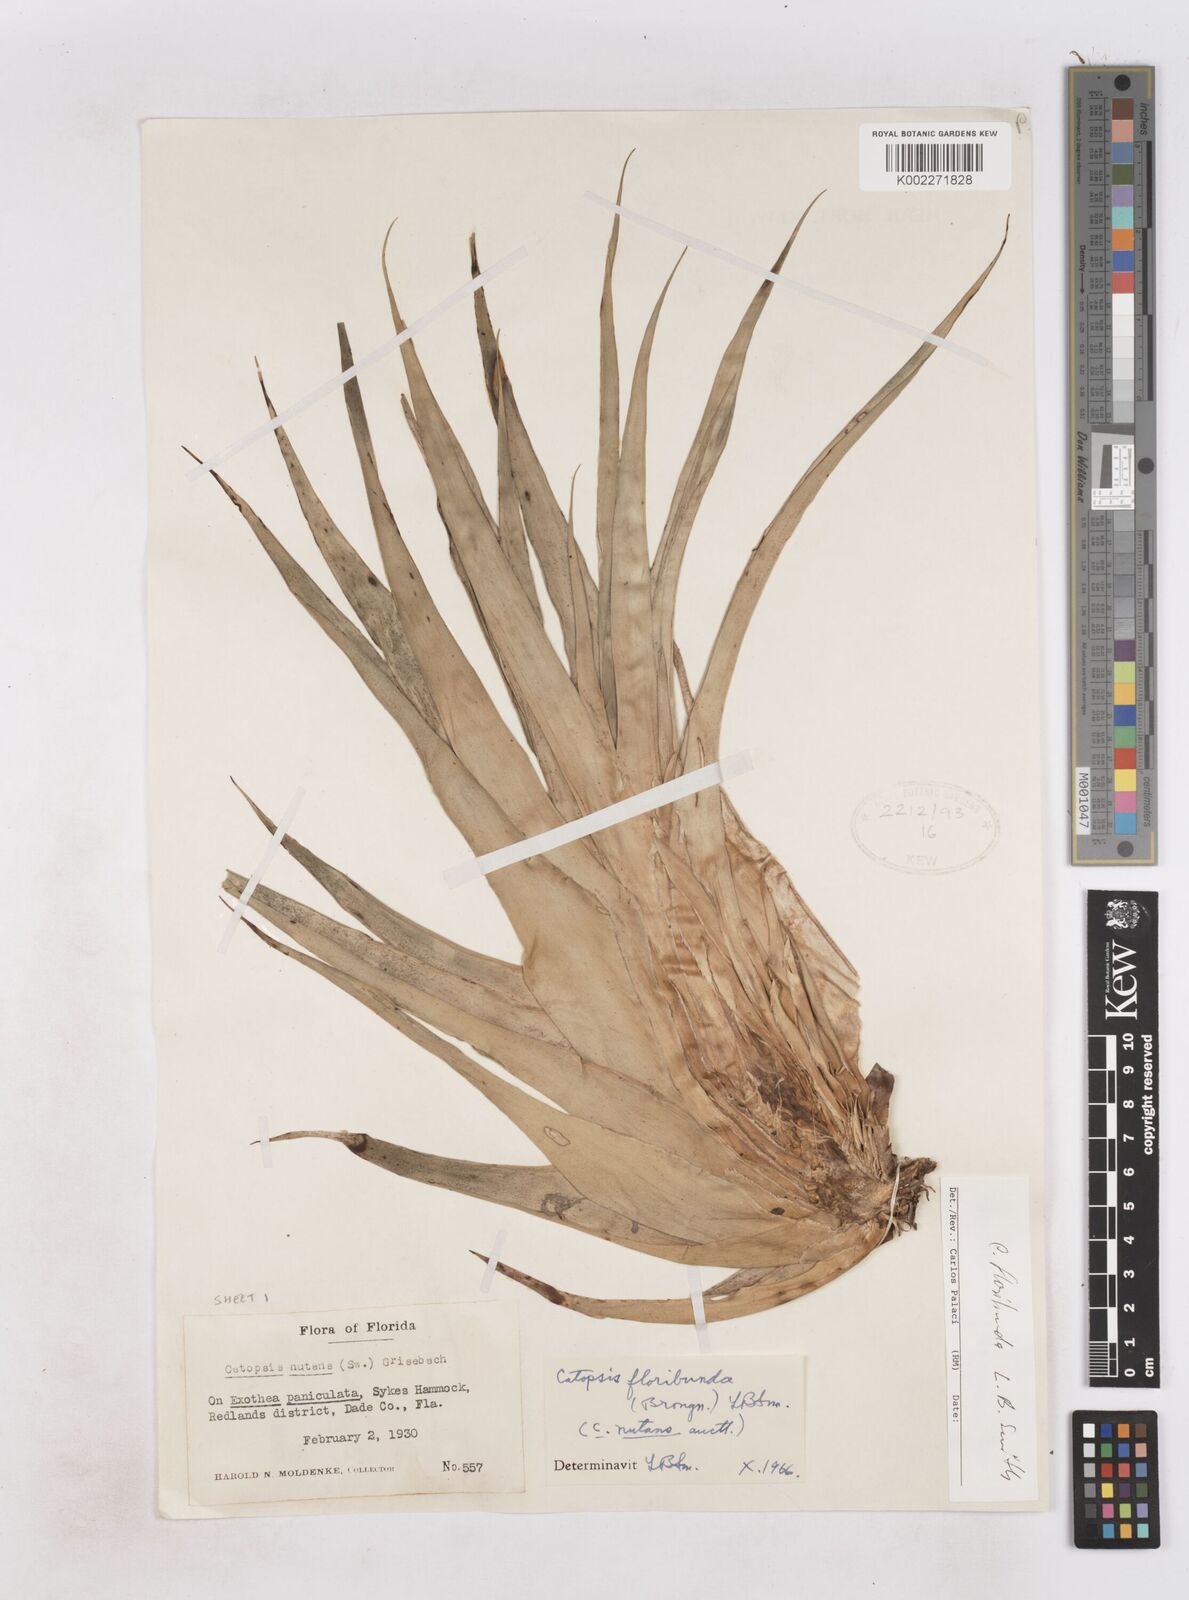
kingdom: Plantae
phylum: Tracheophyta
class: Liliopsida
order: Poales
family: Bromeliaceae
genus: Catopsis
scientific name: Catopsis floribunda
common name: Florida strap airplant
